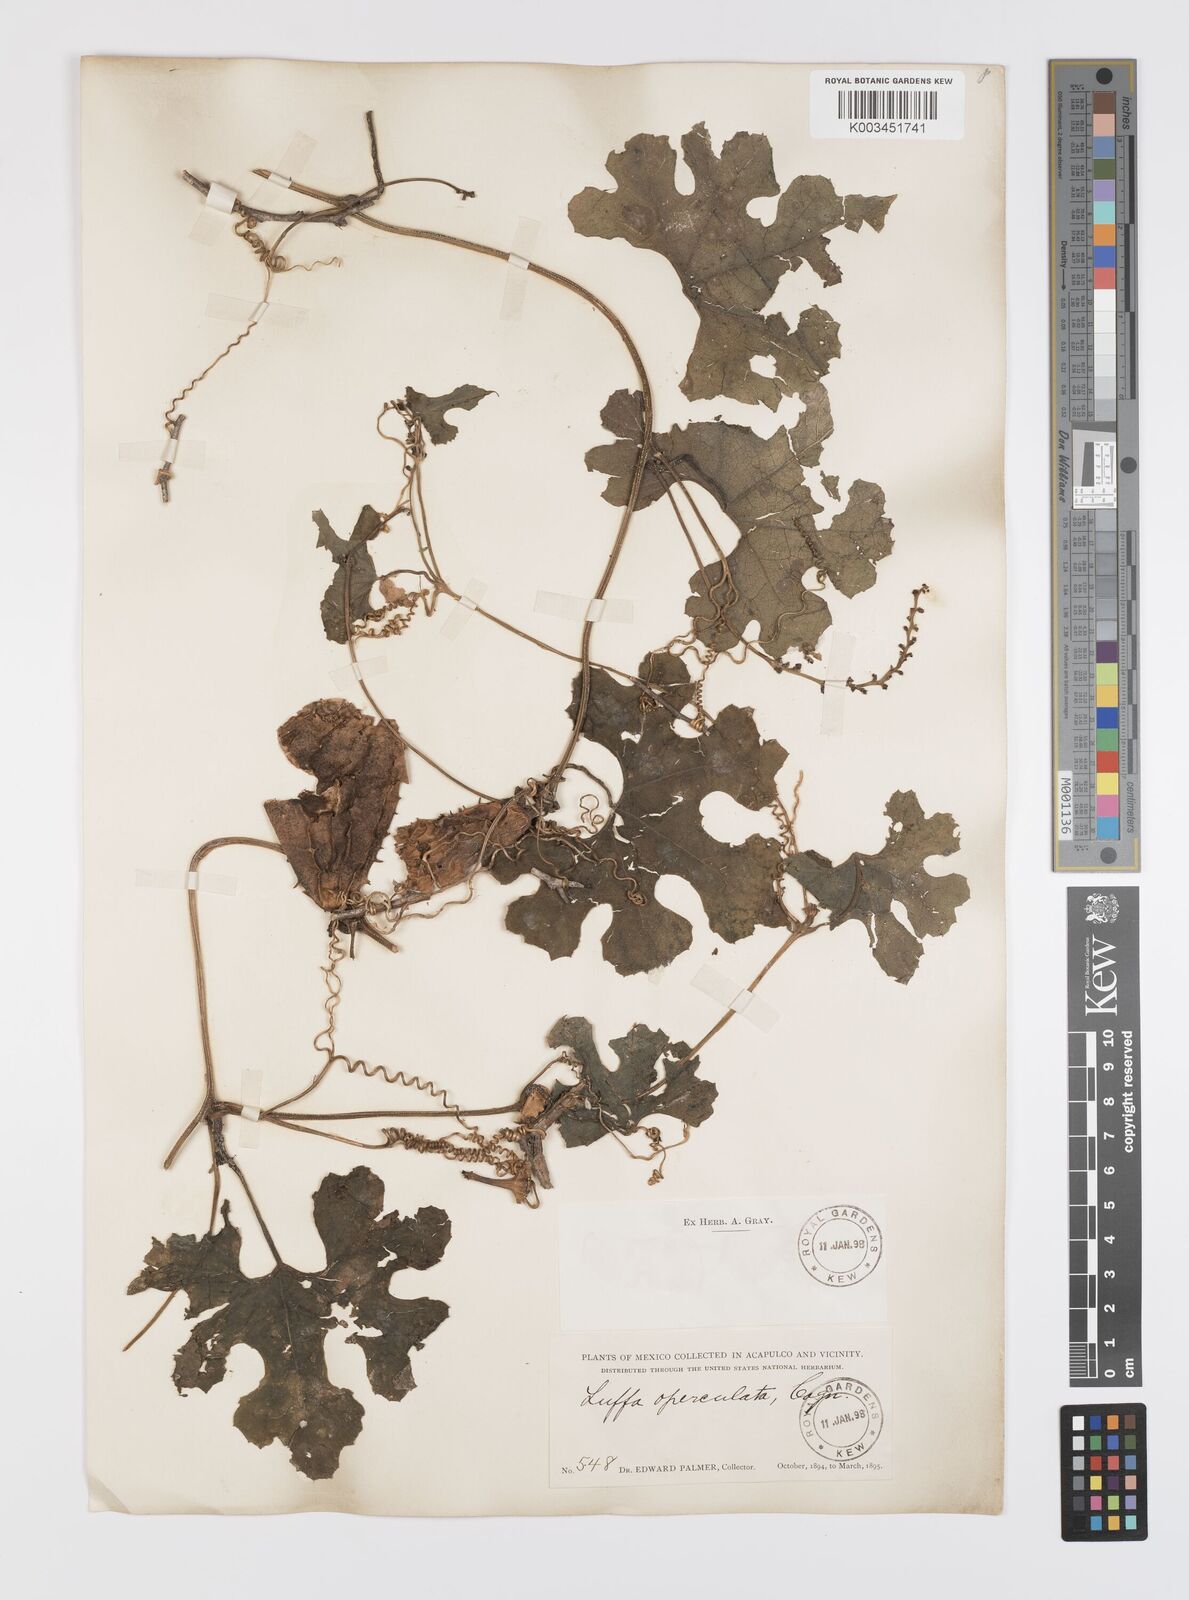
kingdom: Plantae
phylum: Tracheophyta
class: Magnoliopsida
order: Cucurbitales
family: Cucurbitaceae
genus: Luffa
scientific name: Luffa quinquefolia
